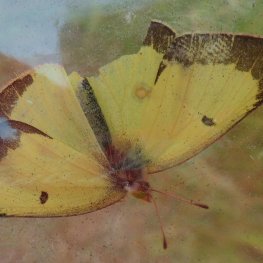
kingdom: Animalia
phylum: Arthropoda
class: Insecta
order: Lepidoptera
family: Pieridae
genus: Colias
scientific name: Colias philodice
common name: Clouded Sulphur
